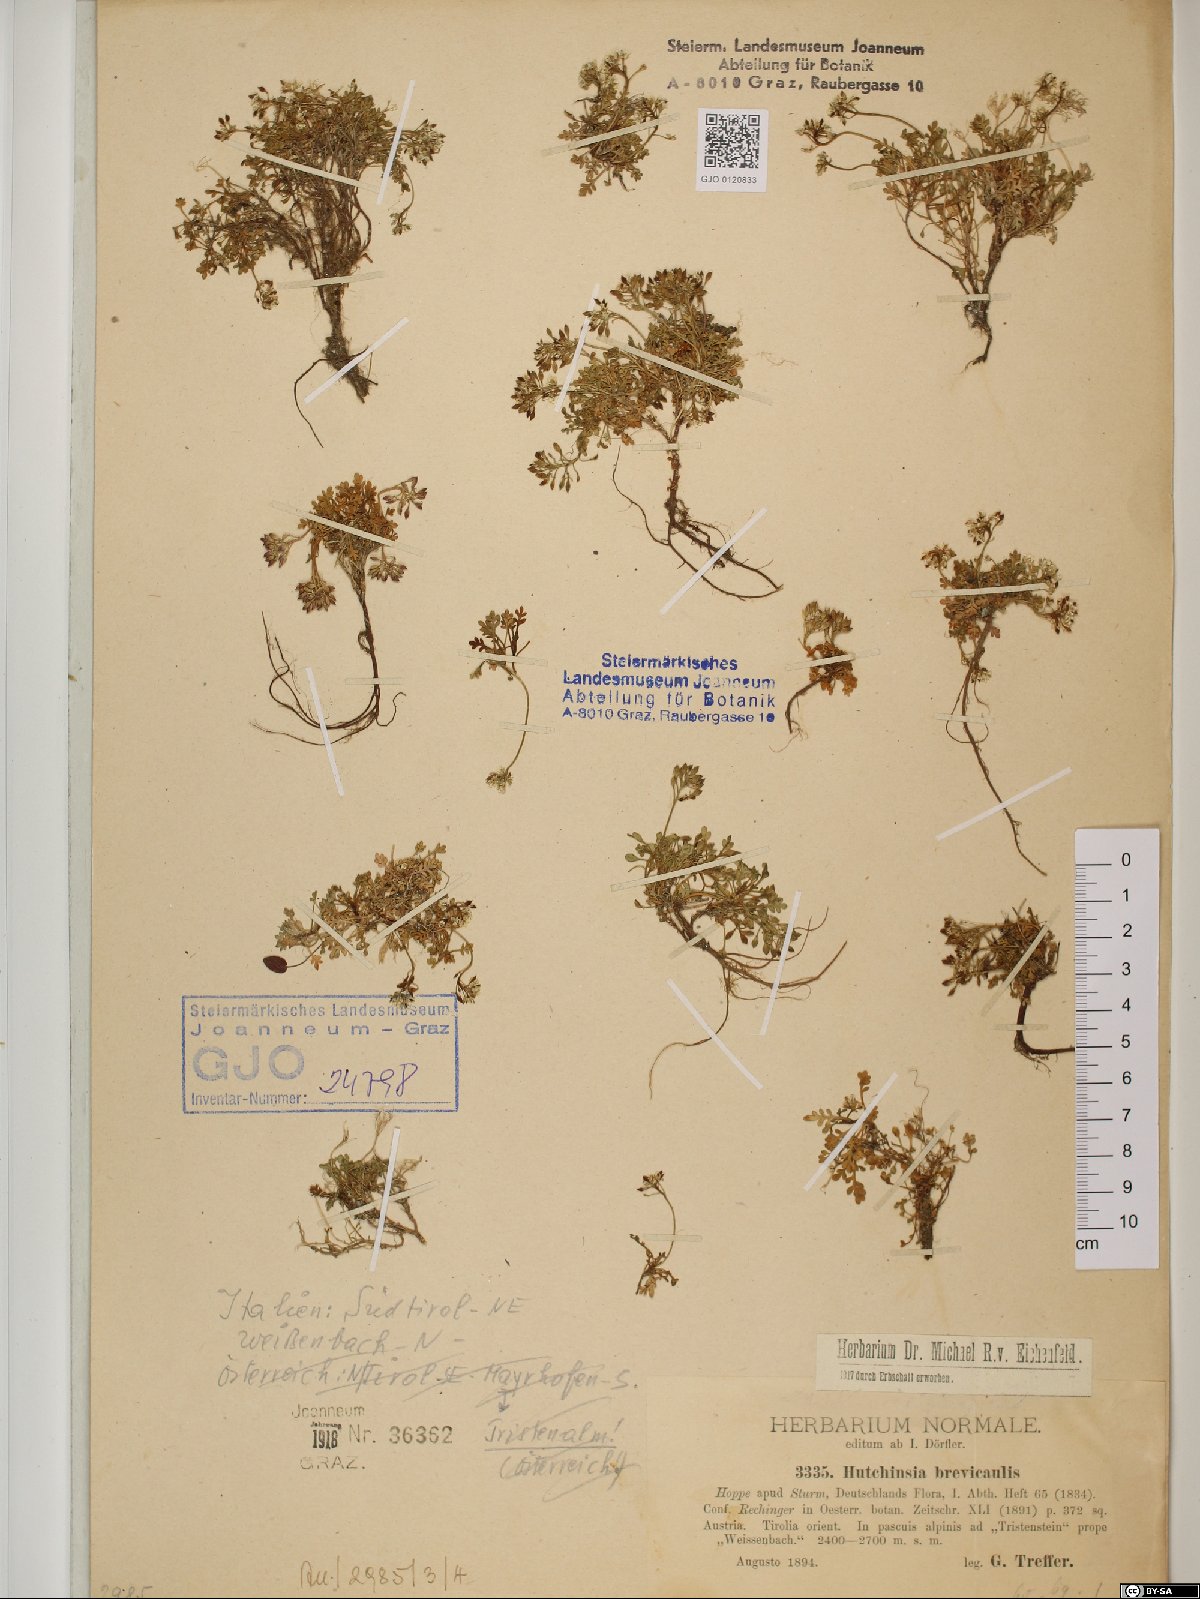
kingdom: Plantae
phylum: Tracheophyta
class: Magnoliopsida
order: Brassicales
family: Brassicaceae
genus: Hornungia
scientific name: Hornungia alpina
